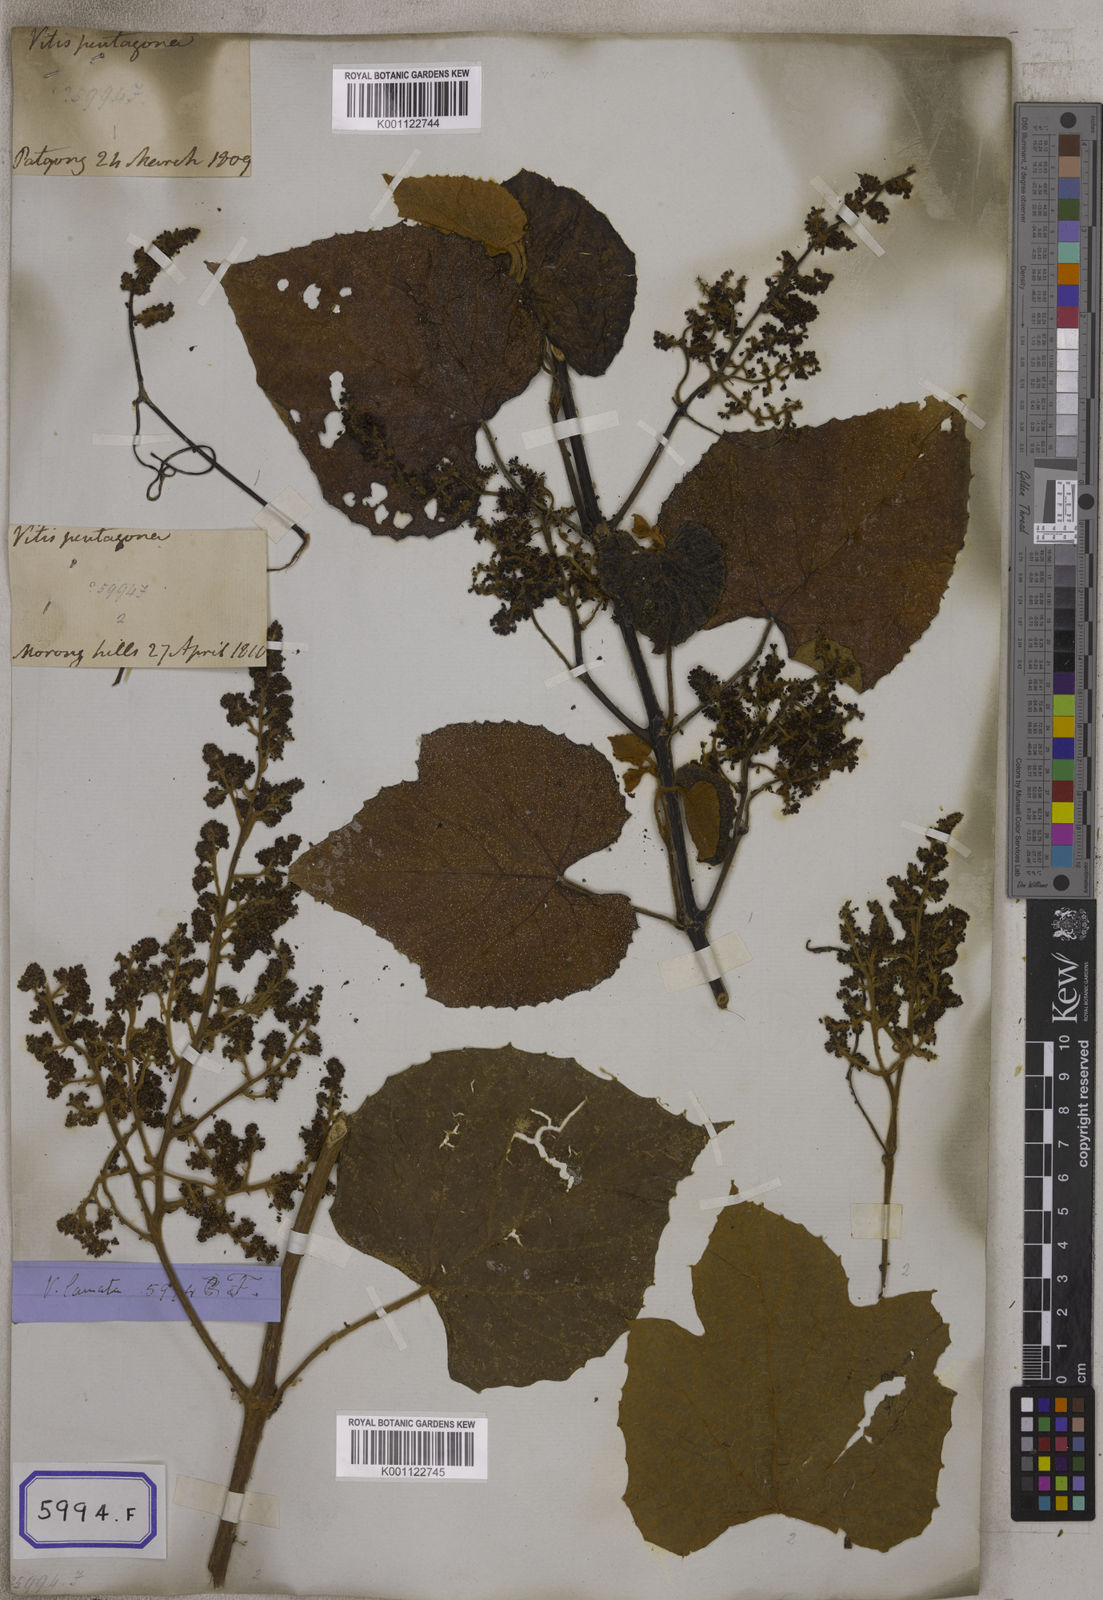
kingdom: Plantae
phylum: Tracheophyta
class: Magnoliopsida
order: Vitales
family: Vitaceae
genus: Ampelocissus
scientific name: Ampelocissus rugosa
